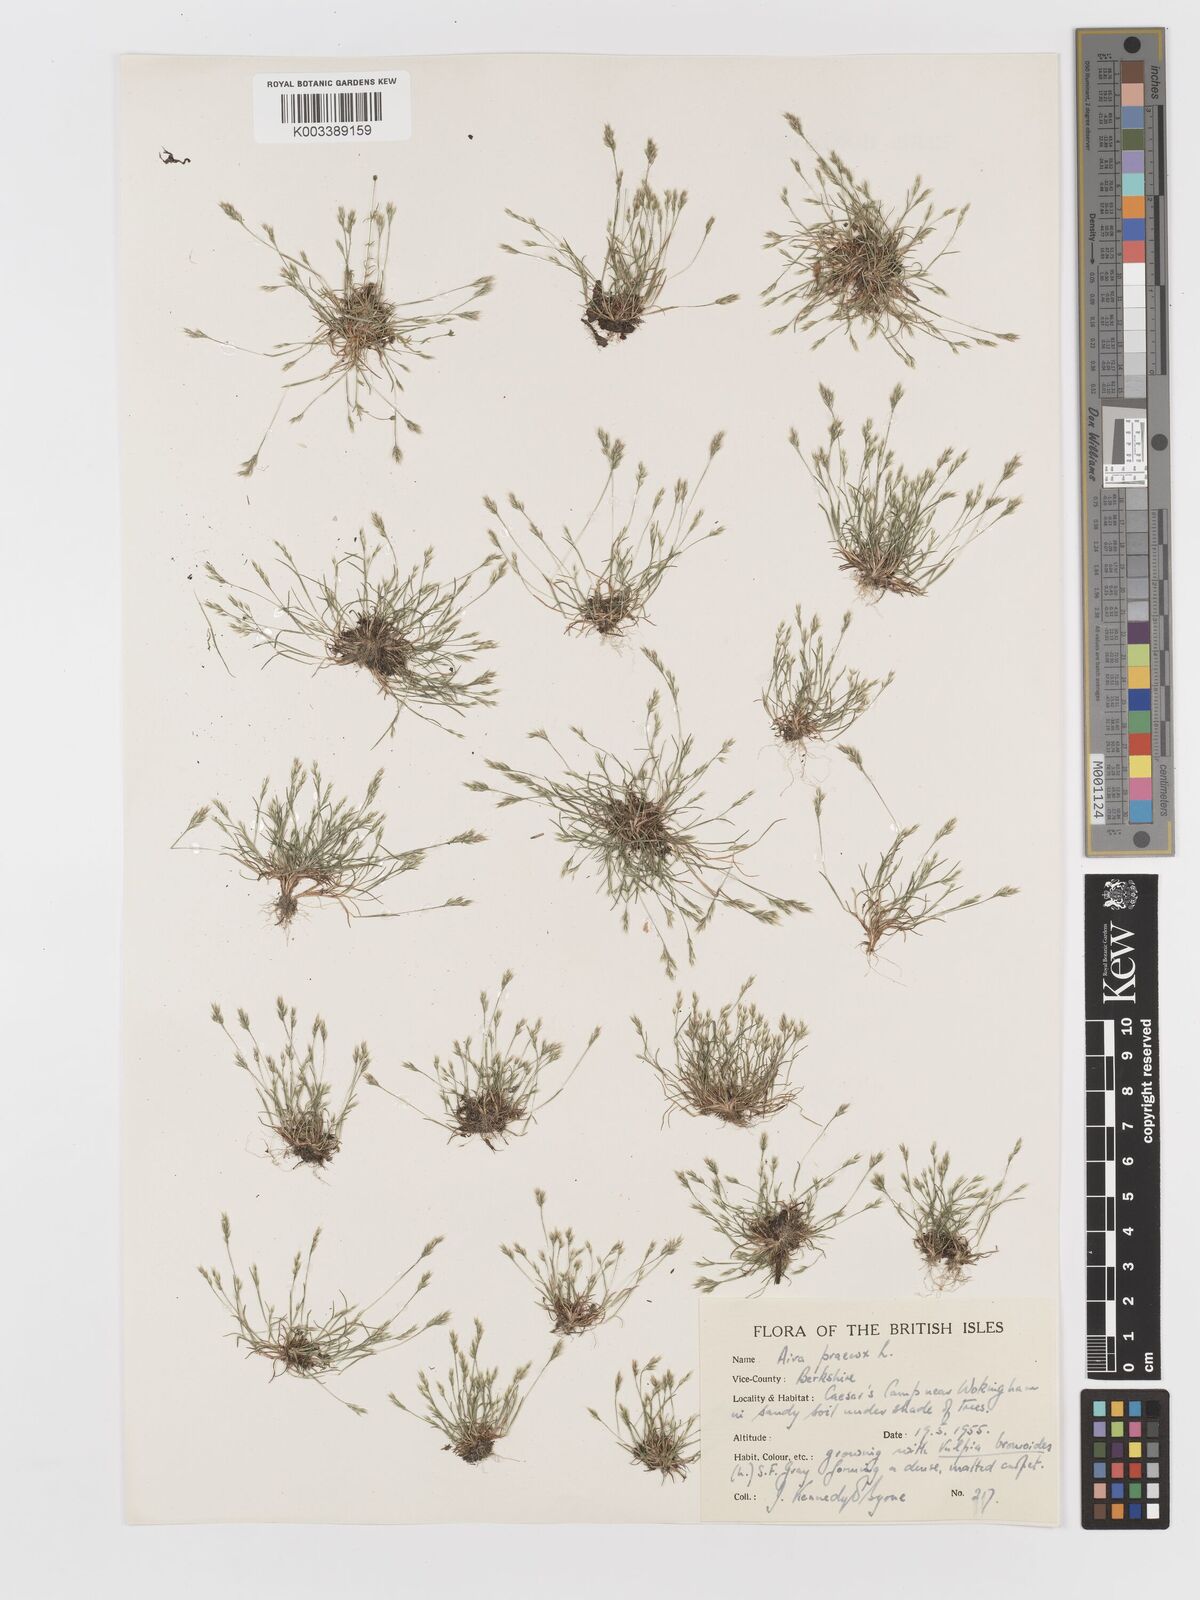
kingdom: Plantae
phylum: Tracheophyta
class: Liliopsida
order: Poales
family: Poaceae
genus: Aira
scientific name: Aira praecox
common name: Early hair-grass
